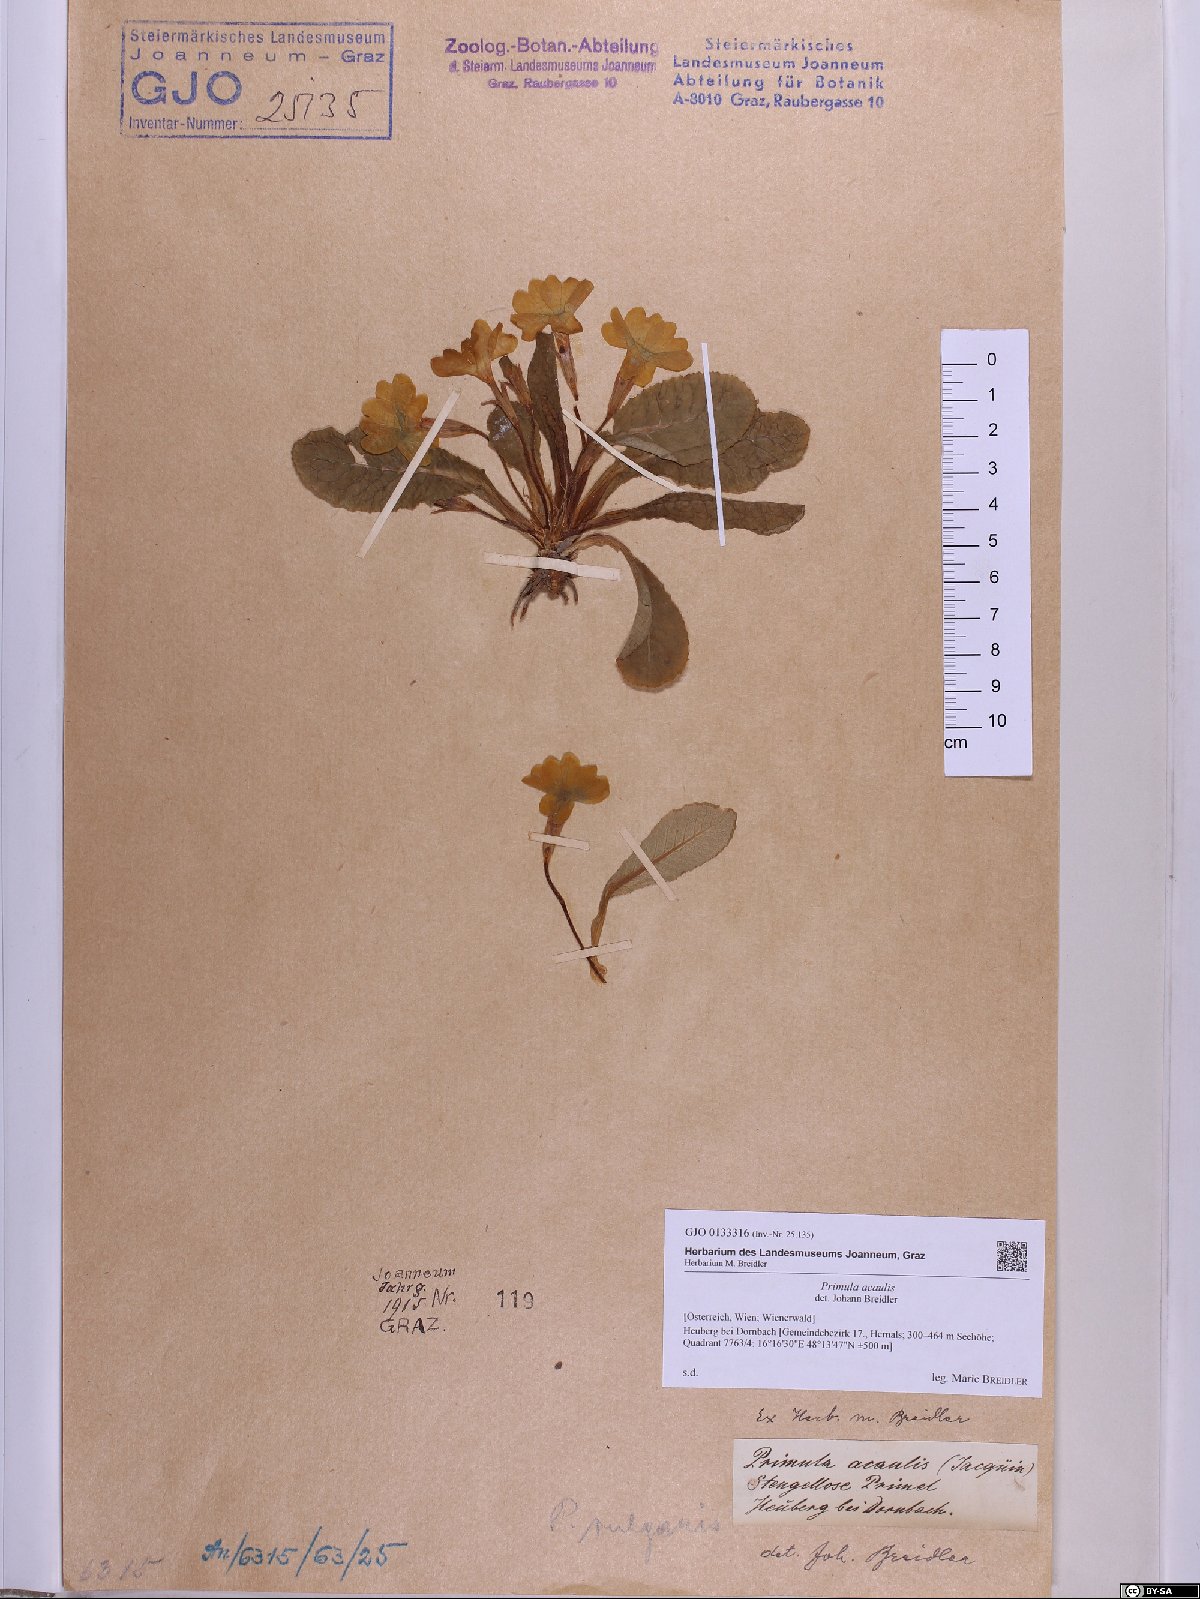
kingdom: Plantae
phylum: Tracheophyta
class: Magnoliopsida
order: Ericales
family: Primulaceae
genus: Primula
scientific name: Primula vulgaris
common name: Primrose
